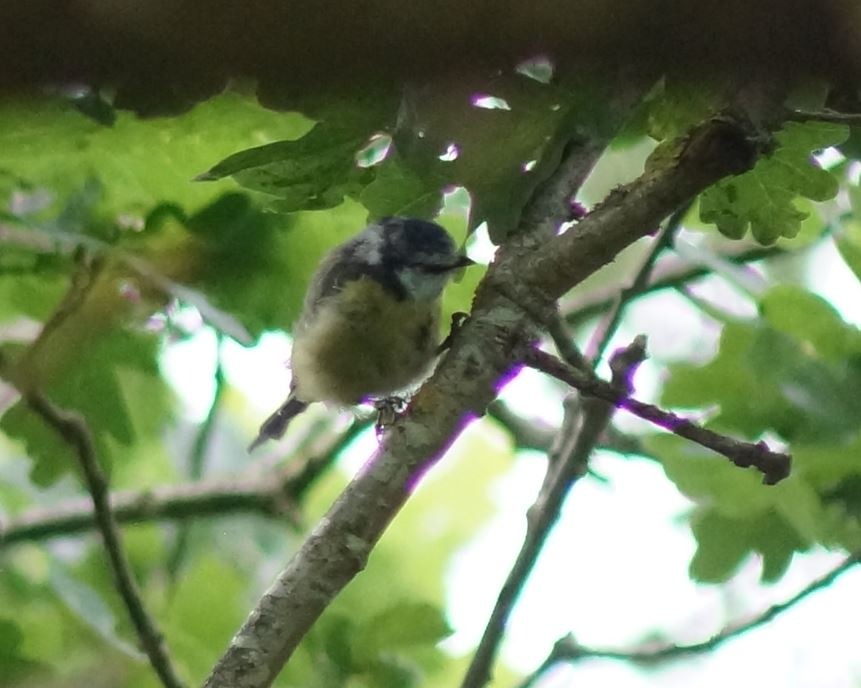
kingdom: Animalia
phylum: Chordata
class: Aves
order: Passeriformes
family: Paridae
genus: Cyanistes
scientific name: Cyanistes caeruleus
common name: Blåmejse
